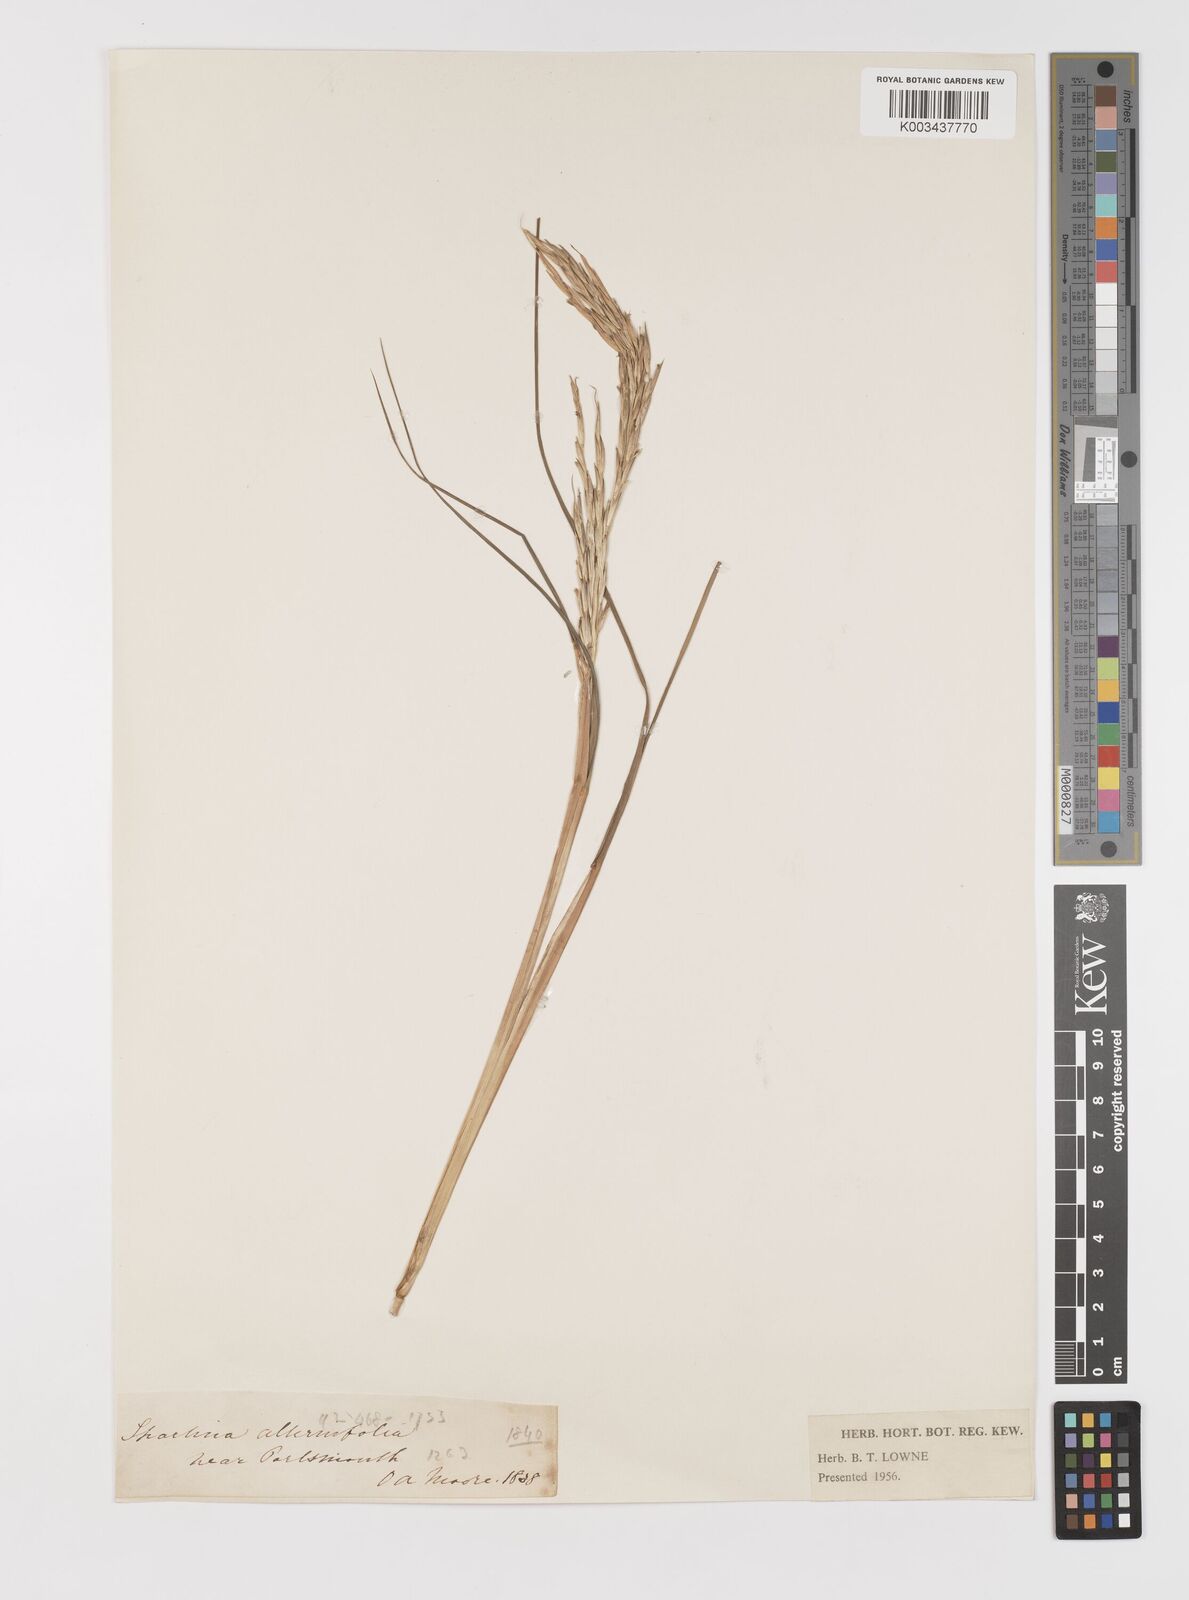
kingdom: Plantae
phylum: Tracheophyta
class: Liliopsida
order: Poales
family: Poaceae
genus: Sporobolus
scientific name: Sporobolus alterniflorus
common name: Atlantic cordgrass
